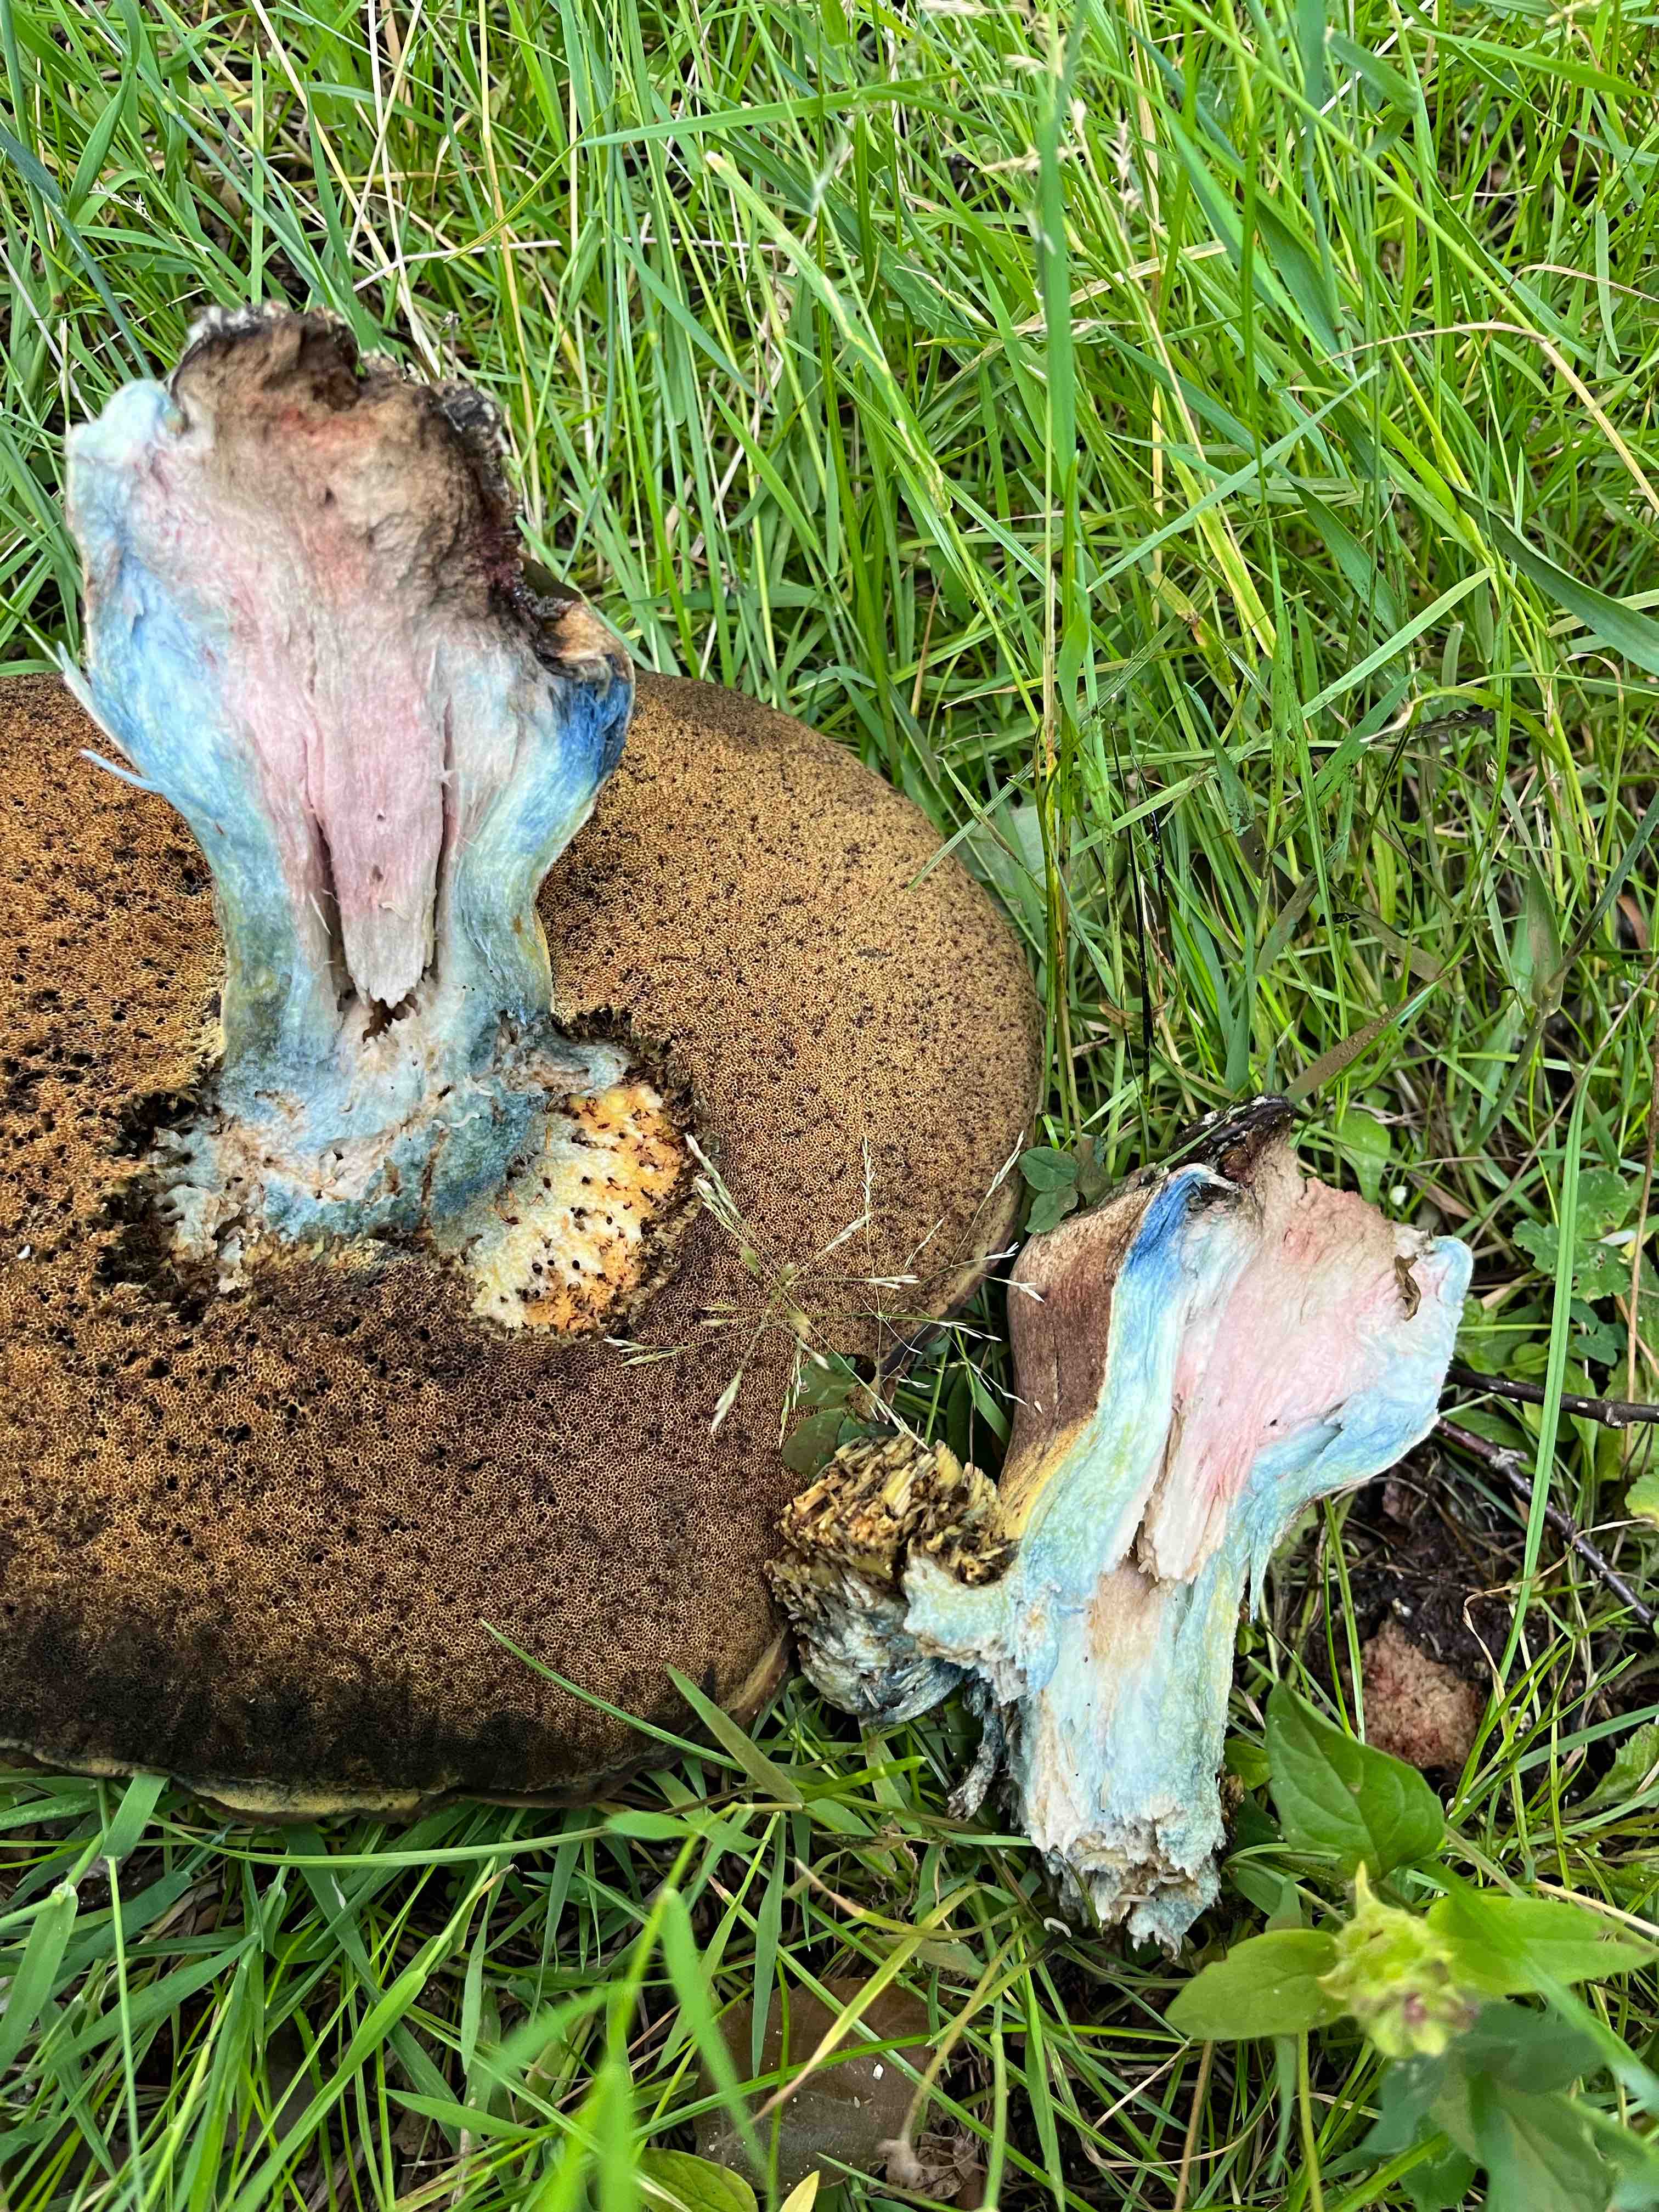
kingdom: Fungi
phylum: Basidiomycota
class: Agaricomycetes
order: Boletales
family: Boletaceae
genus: Caloboletus
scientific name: Caloboletus radicans
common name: rod-rørhat
